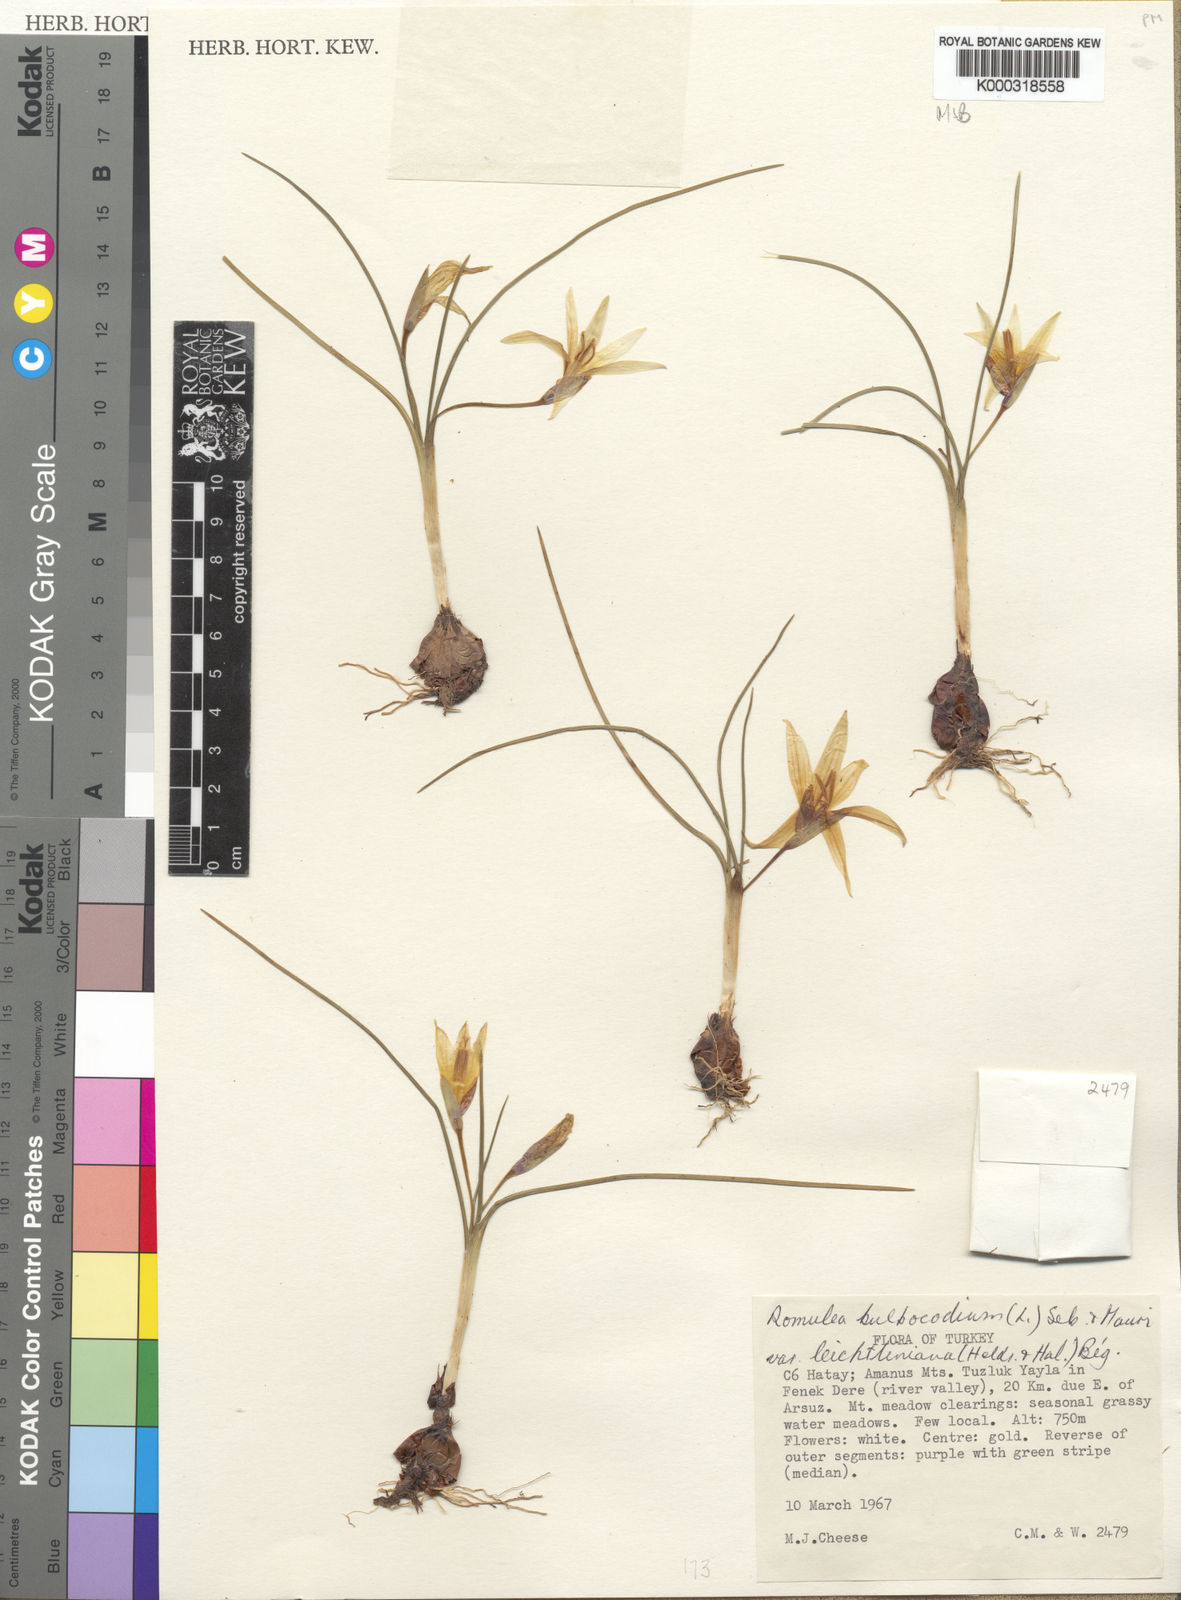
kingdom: Plantae
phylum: Tracheophyta
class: Liliopsida
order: Asparagales
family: Iridaceae
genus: Romulea
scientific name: Romulea bulbocodium
